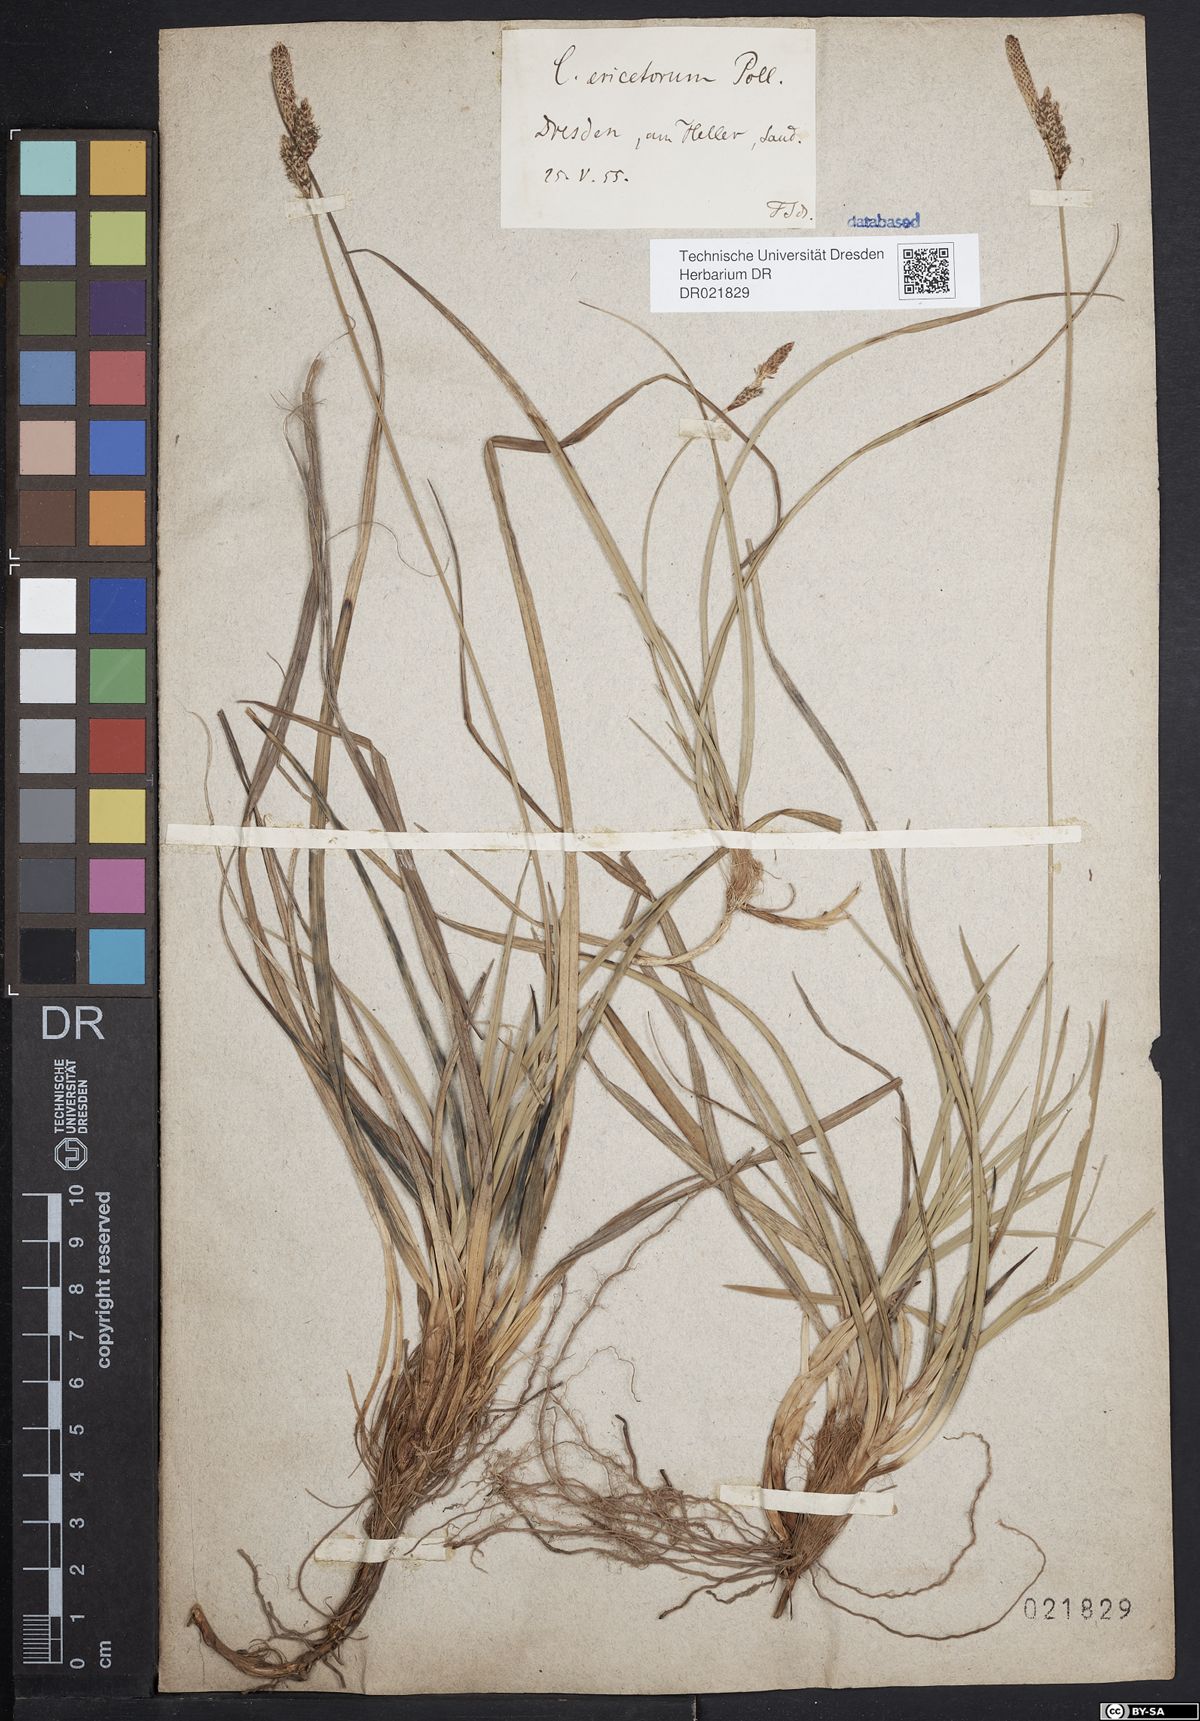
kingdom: Plantae
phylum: Tracheophyta
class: Liliopsida
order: Poales
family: Cyperaceae
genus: Carex
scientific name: Carex ericetorum
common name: Rare spring-sedge
